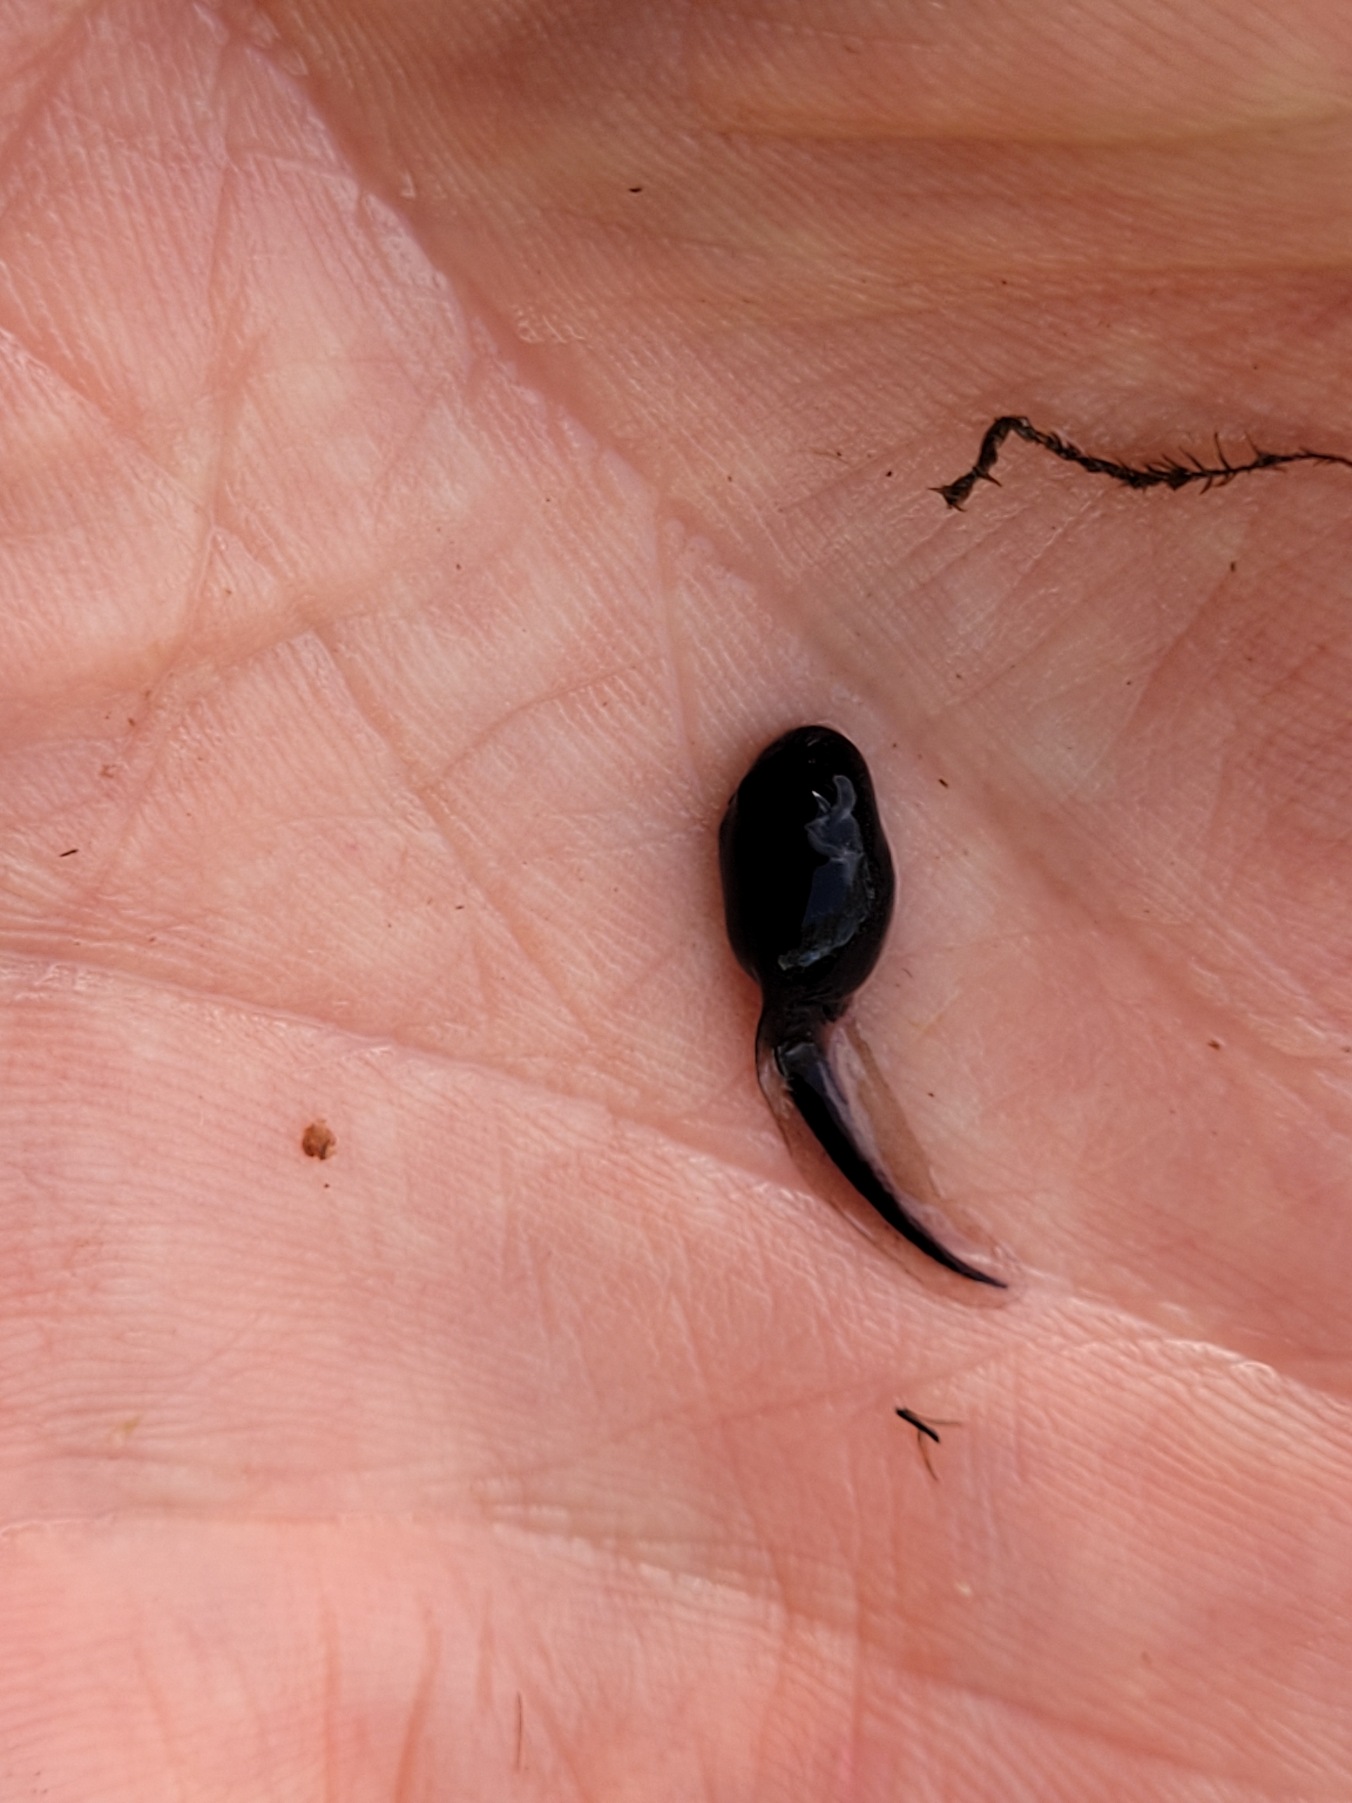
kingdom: Animalia
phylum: Chordata
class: Amphibia
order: Anura
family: Bufonidae
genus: Bufo
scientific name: Bufo bufo
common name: Skrubtudse
